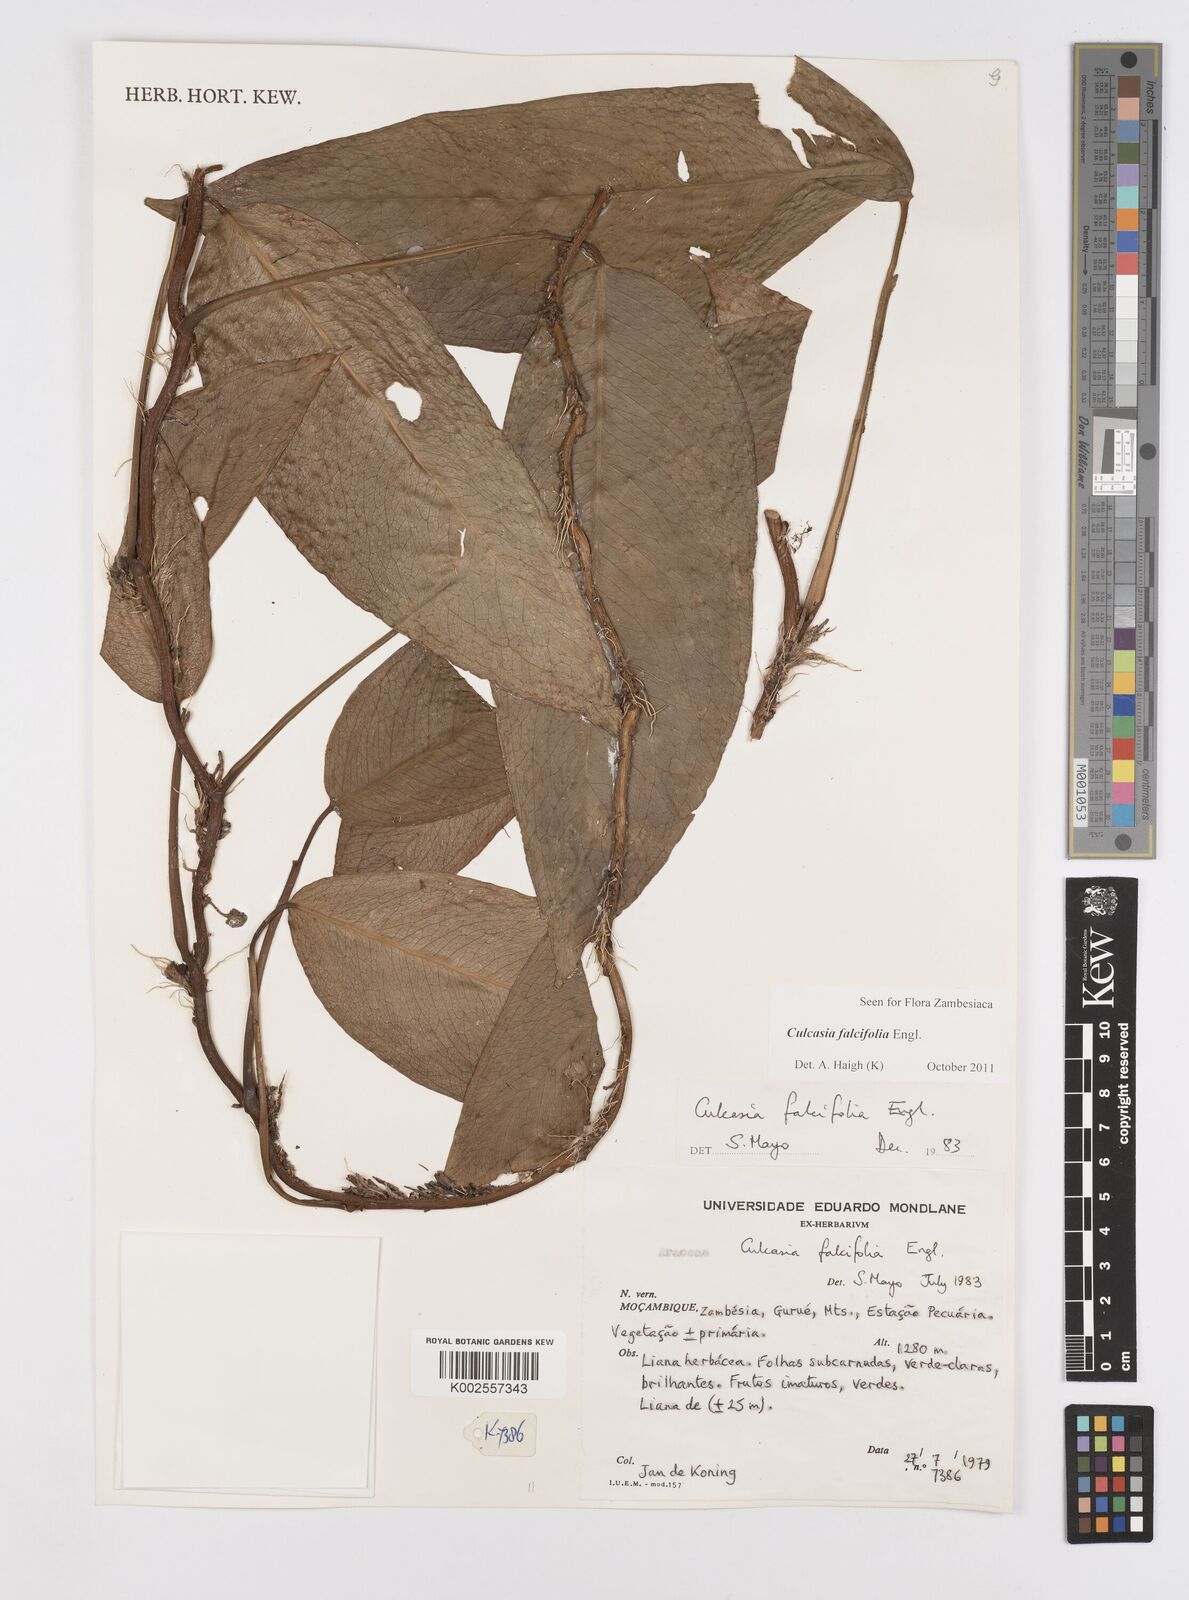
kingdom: Plantae
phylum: Tracheophyta
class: Liliopsida
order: Alismatales
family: Araceae
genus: Culcasia
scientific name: Culcasia falcifolia
